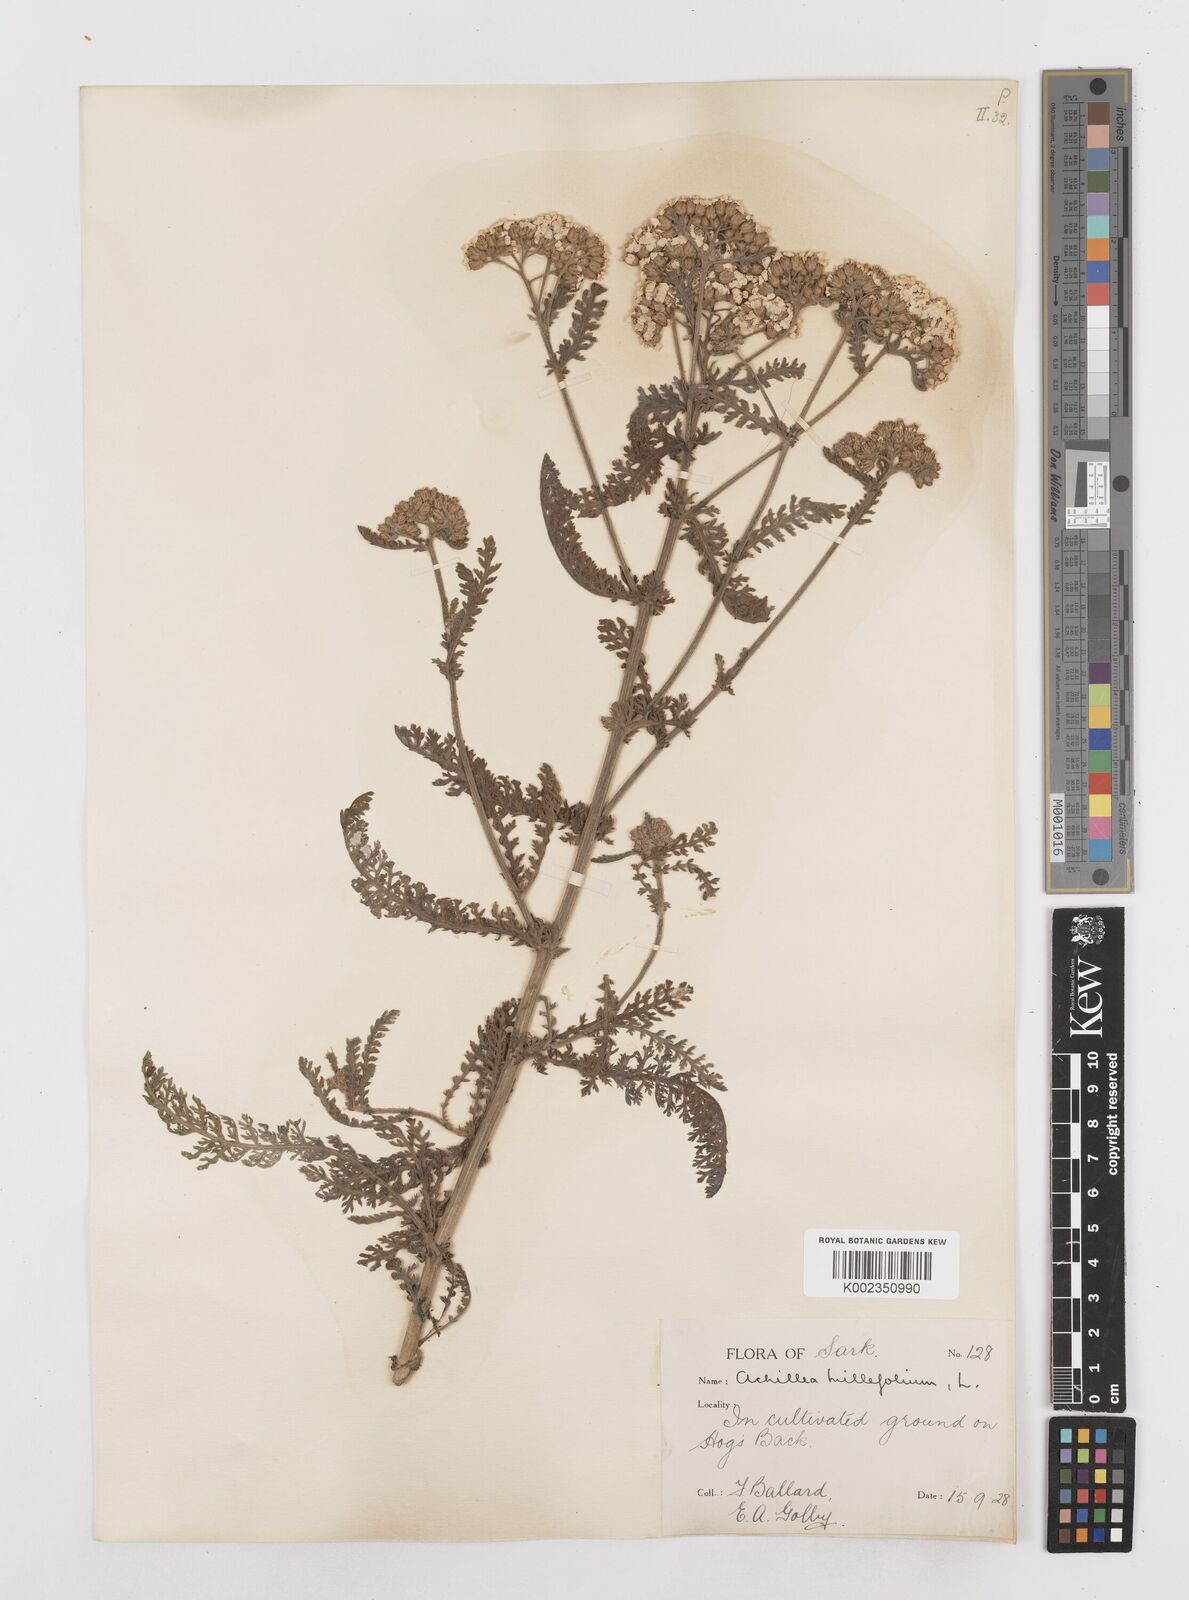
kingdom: Plantae
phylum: Tracheophyta
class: Magnoliopsida
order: Asterales
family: Asteraceae
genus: Achillea
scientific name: Achillea millefolium
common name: Yarrow
